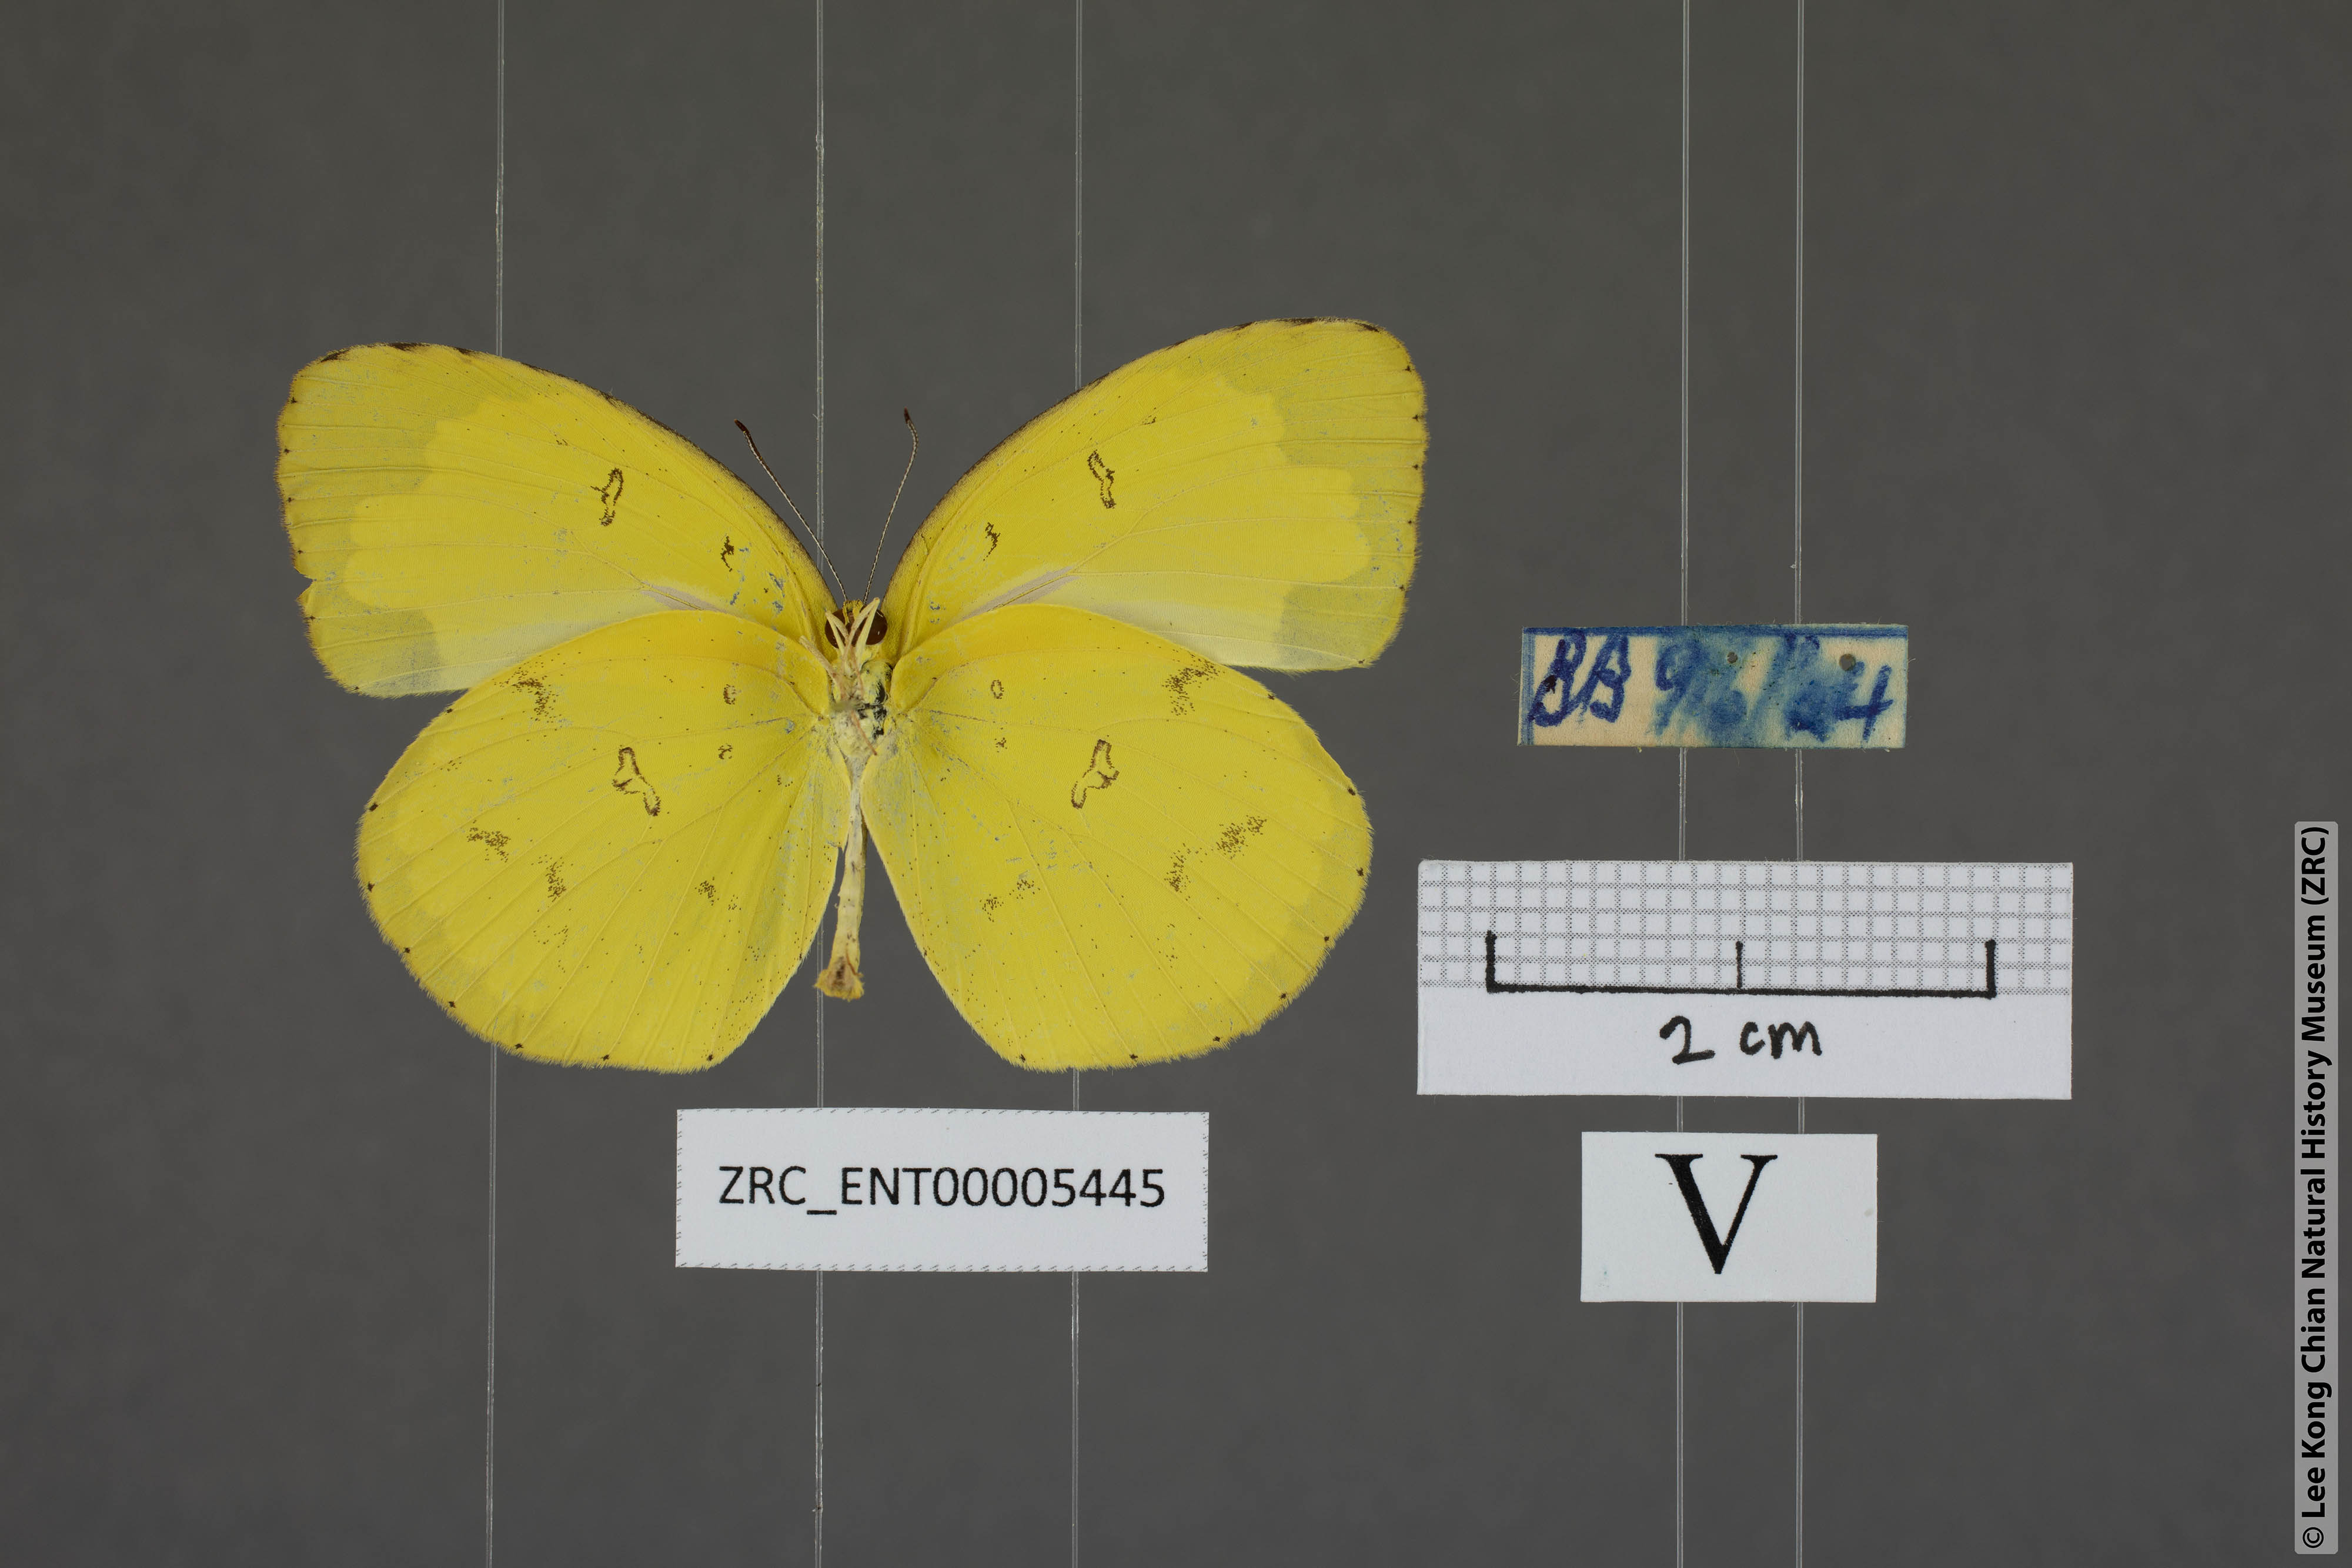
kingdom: Animalia
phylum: Arthropoda
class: Insecta
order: Lepidoptera
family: Pieridae
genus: Eurema
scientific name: Eurema hecabe
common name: Pale grass yellow
